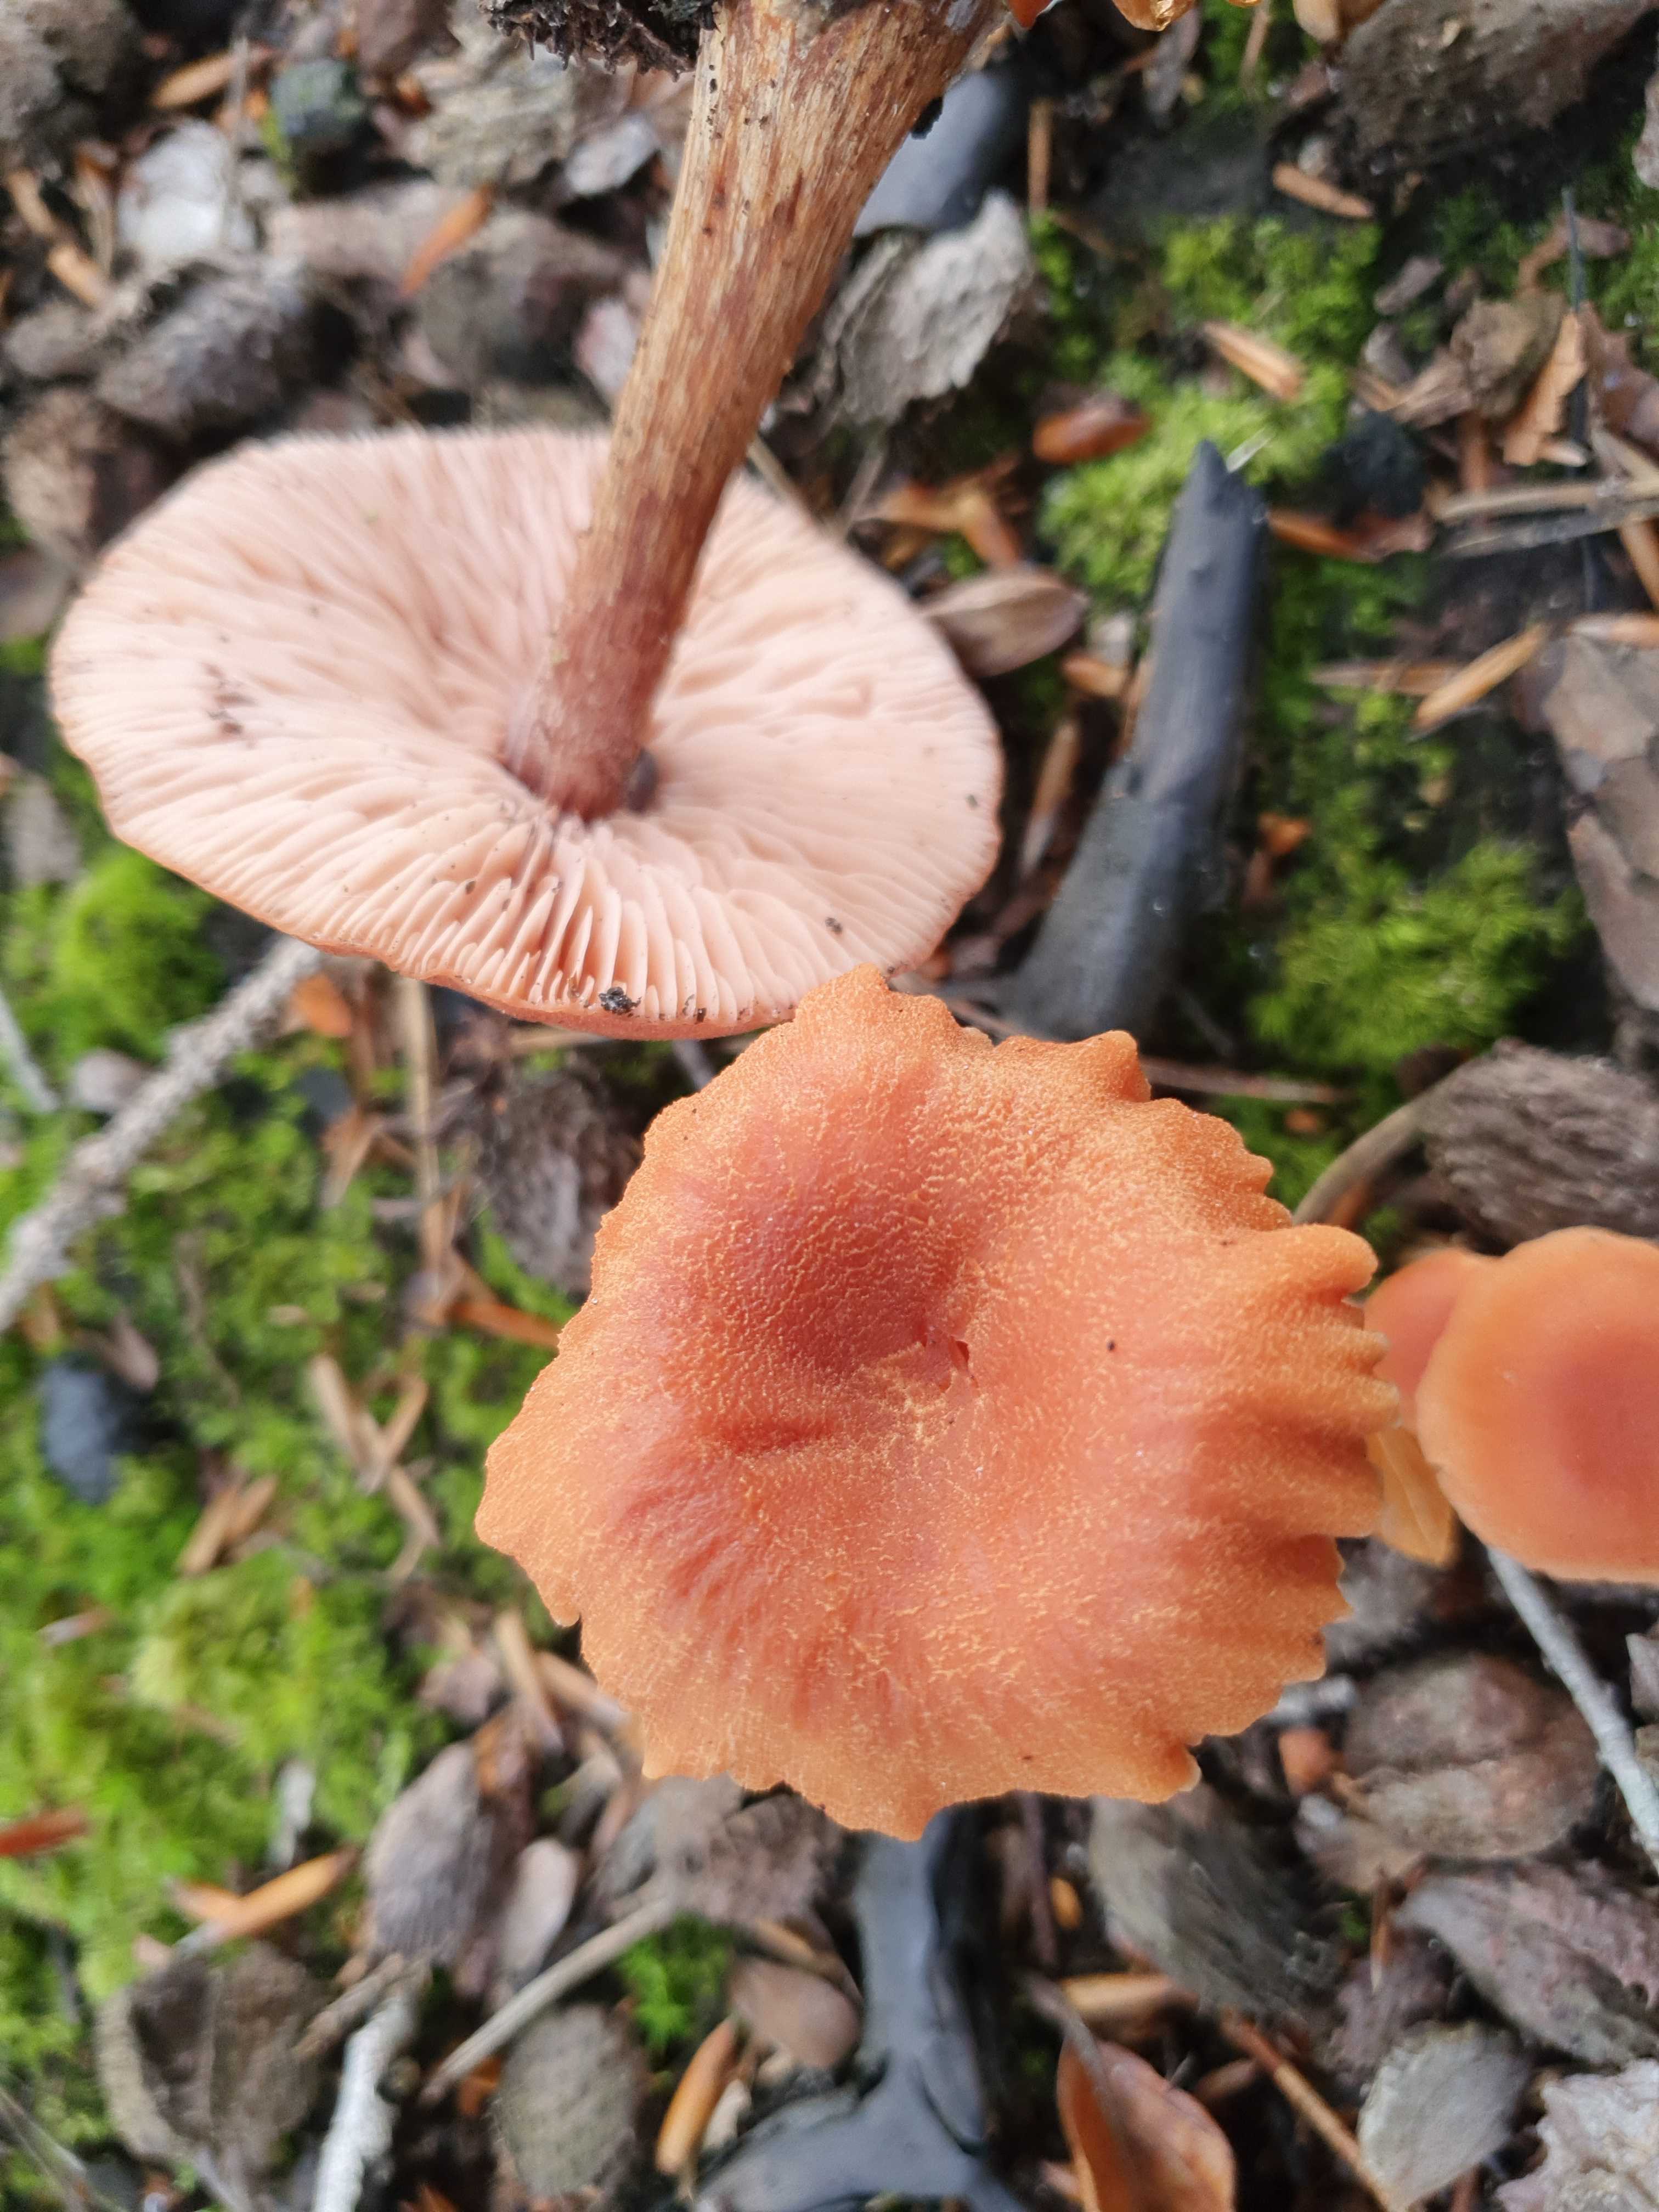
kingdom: Fungi
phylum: Basidiomycota
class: Agaricomycetes
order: Agaricales
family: Hydnangiaceae
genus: Laccaria
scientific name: Laccaria proxima
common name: stor ametysthat
